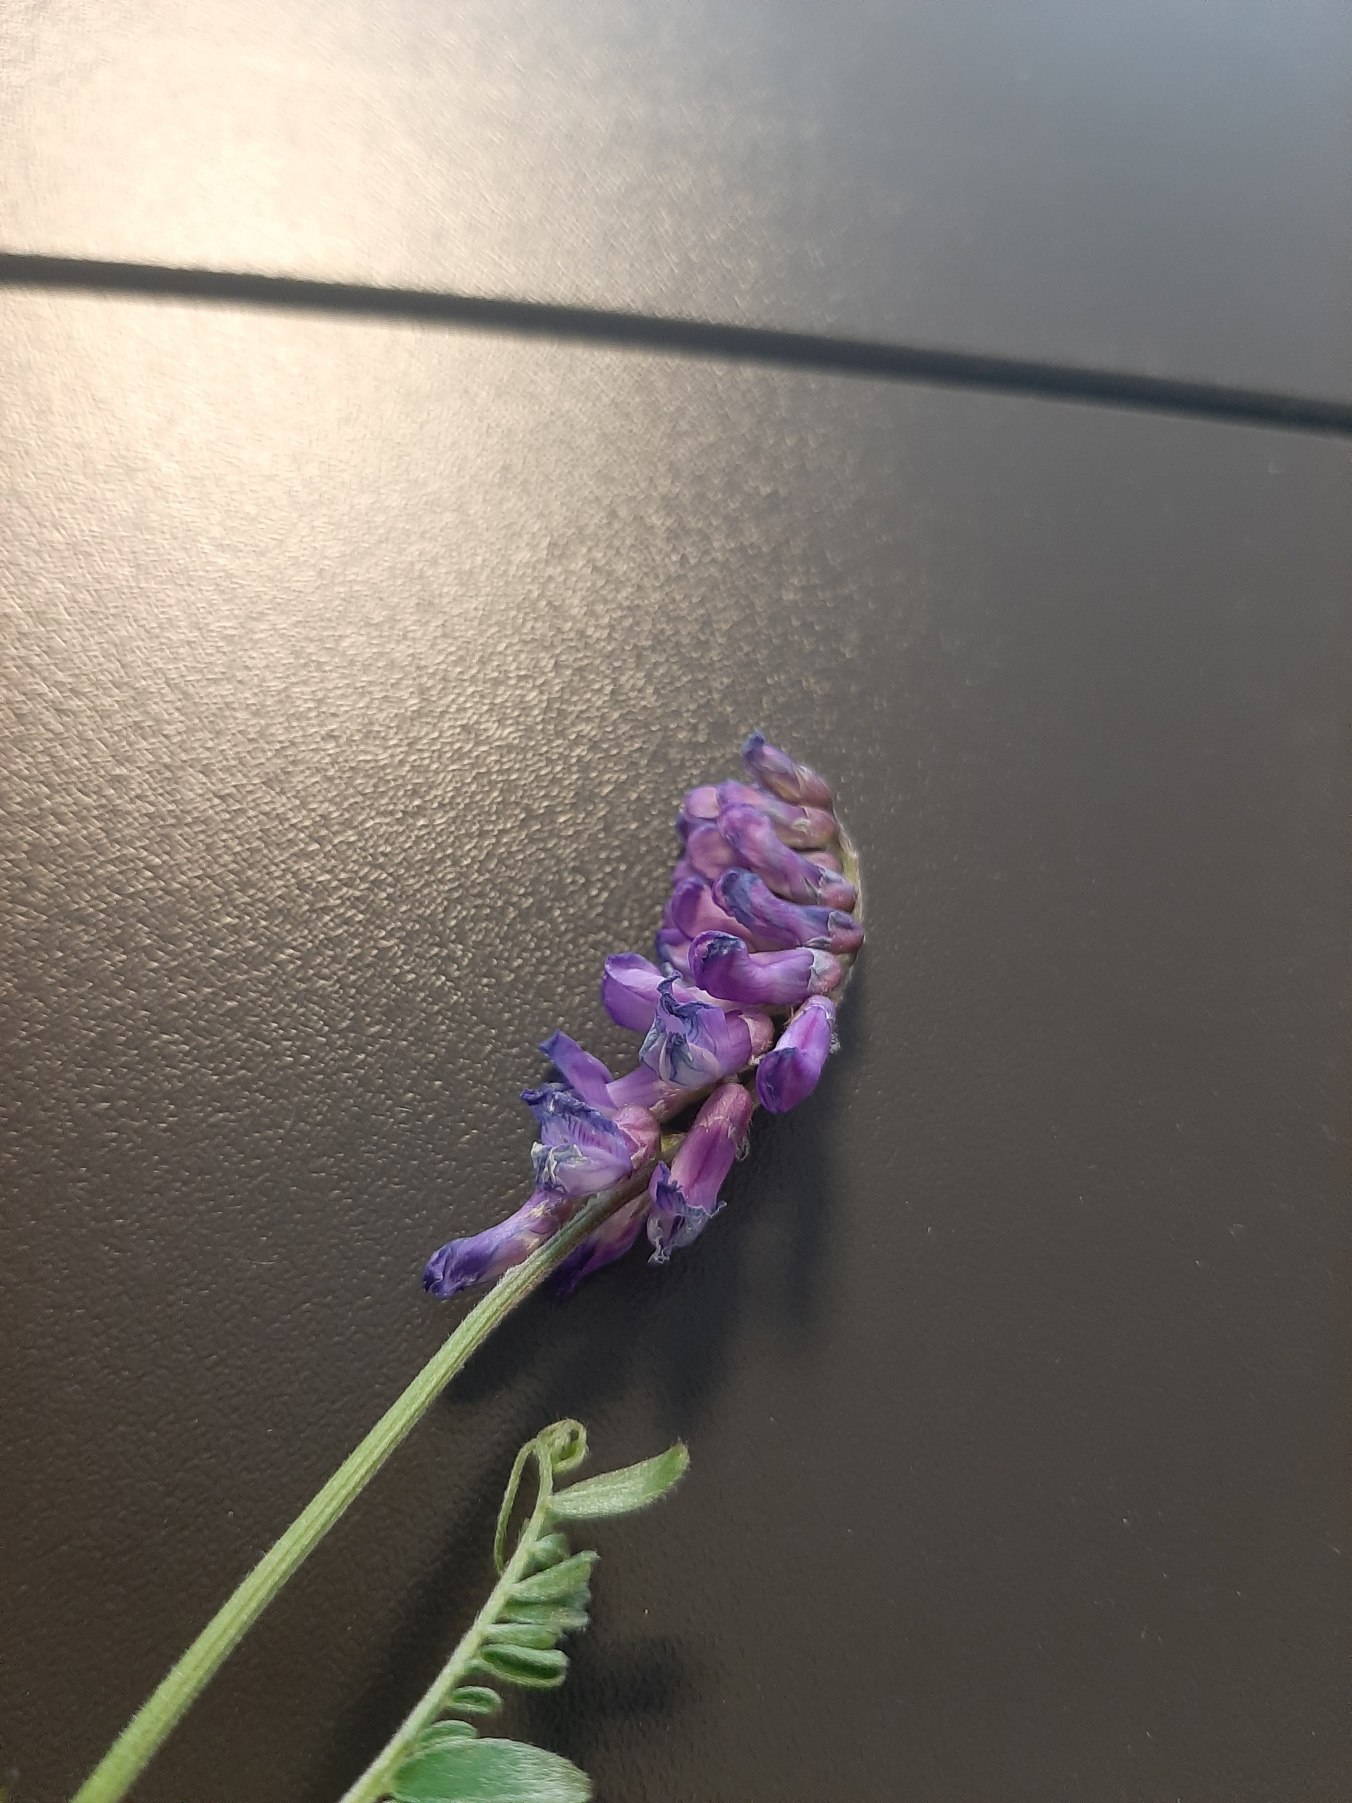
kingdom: Plantae
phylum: Tracheophyta
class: Magnoliopsida
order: Fabales
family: Fabaceae
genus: Vicia
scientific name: Vicia cracca
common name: Muse-vikke
